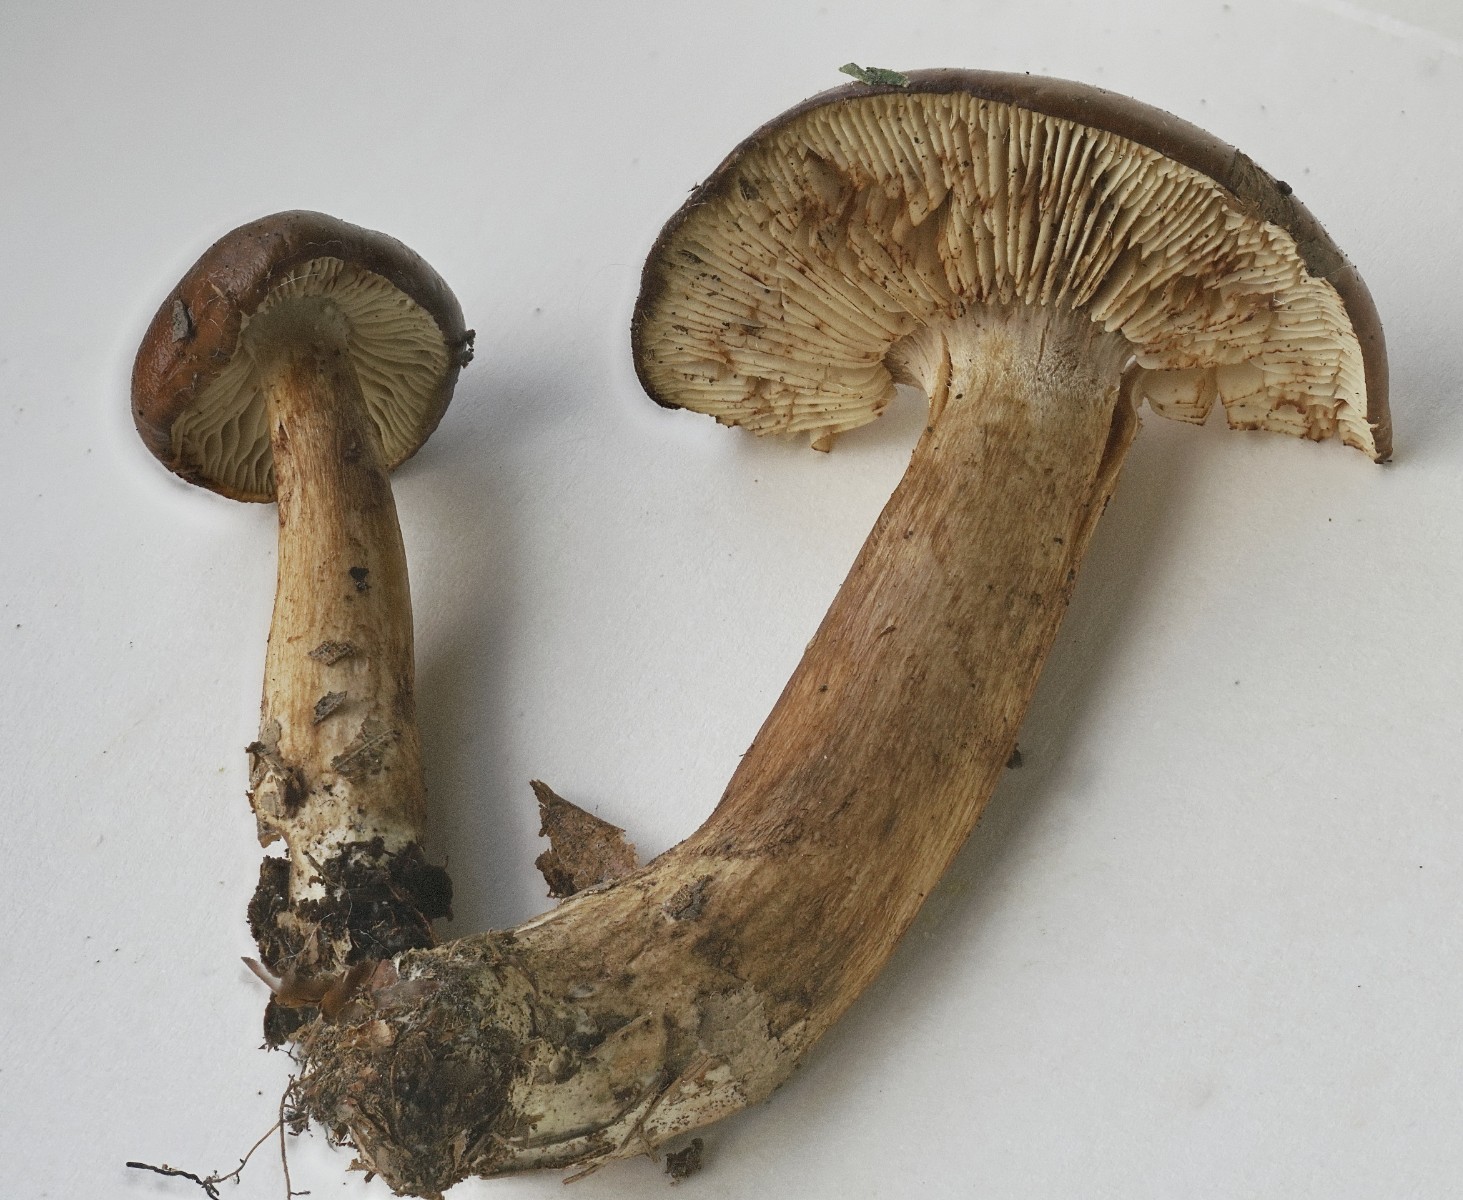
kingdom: Fungi
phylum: Basidiomycota
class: Agaricomycetes
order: Agaricales
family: Tricholomataceae
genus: Tricholoma
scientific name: Tricholoma ustale
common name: sveden ridderhat
